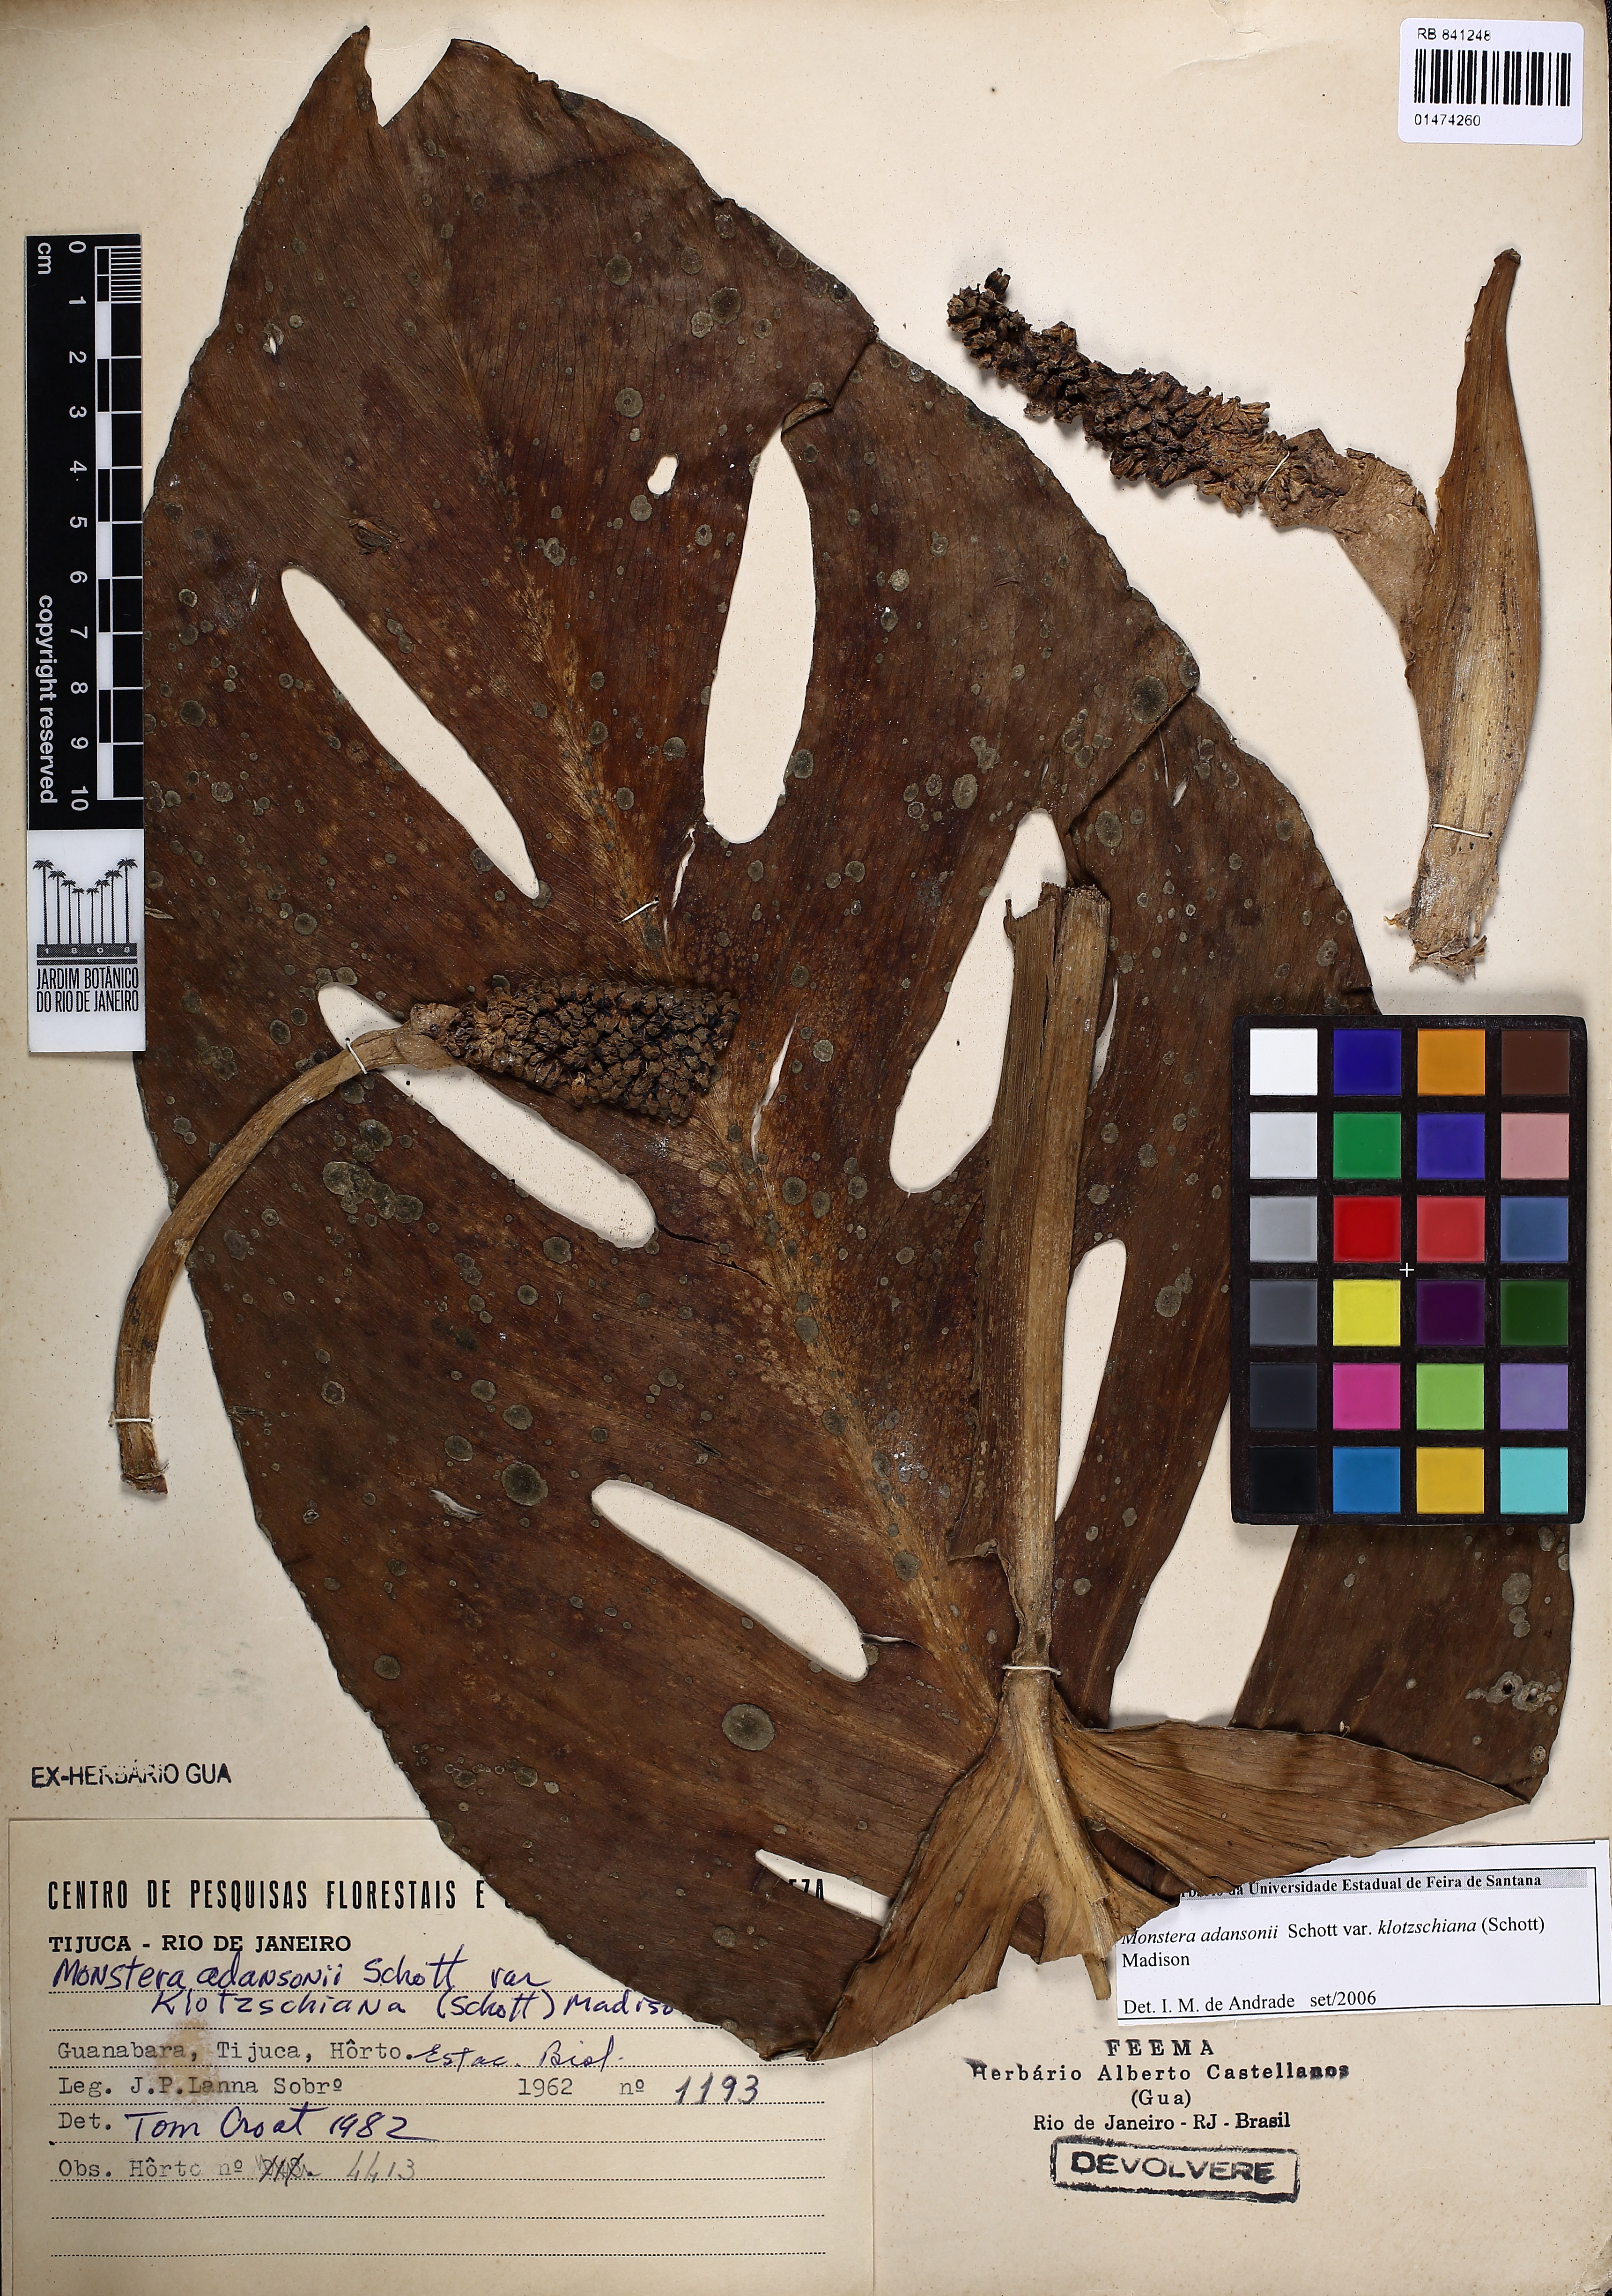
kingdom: Plantae
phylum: Tracheophyta
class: Liliopsida
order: Alismatales
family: Araceae
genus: Monstera
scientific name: Monstera adansonii
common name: Tarovine
